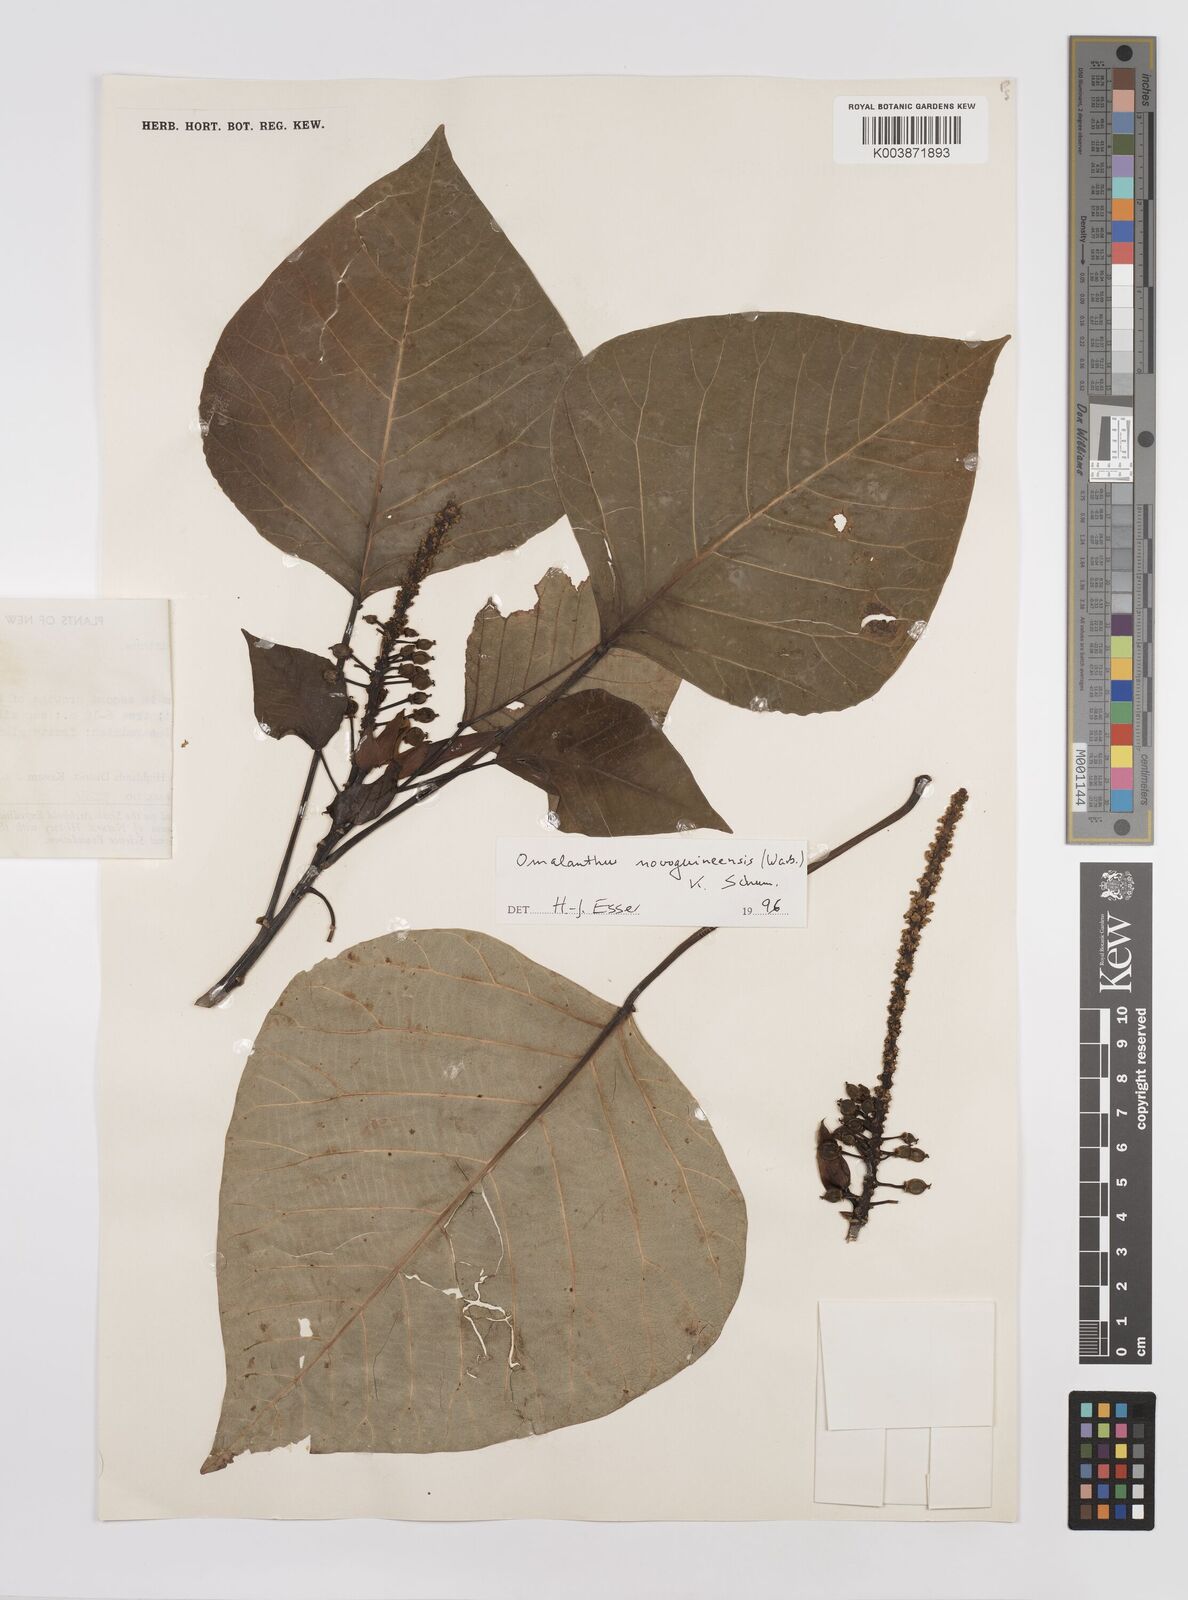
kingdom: Plantae
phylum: Tracheophyta
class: Magnoliopsida
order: Malpighiales
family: Euphorbiaceae
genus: Homalanthus
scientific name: Homalanthus novoguineensis
